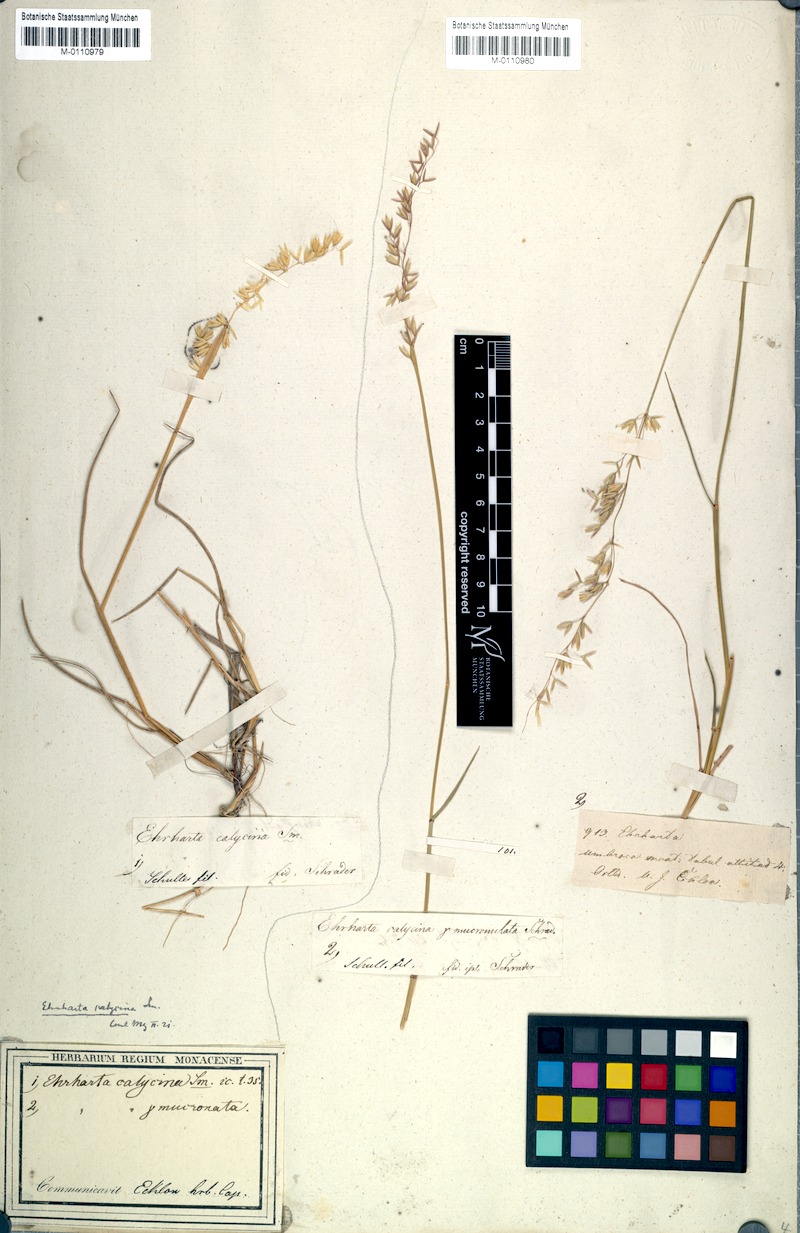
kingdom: Plantae
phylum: Tracheophyta
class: Liliopsida
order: Poales
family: Poaceae
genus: Ehrharta
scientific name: Ehrharta calycina
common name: Perennial veldtgrass
